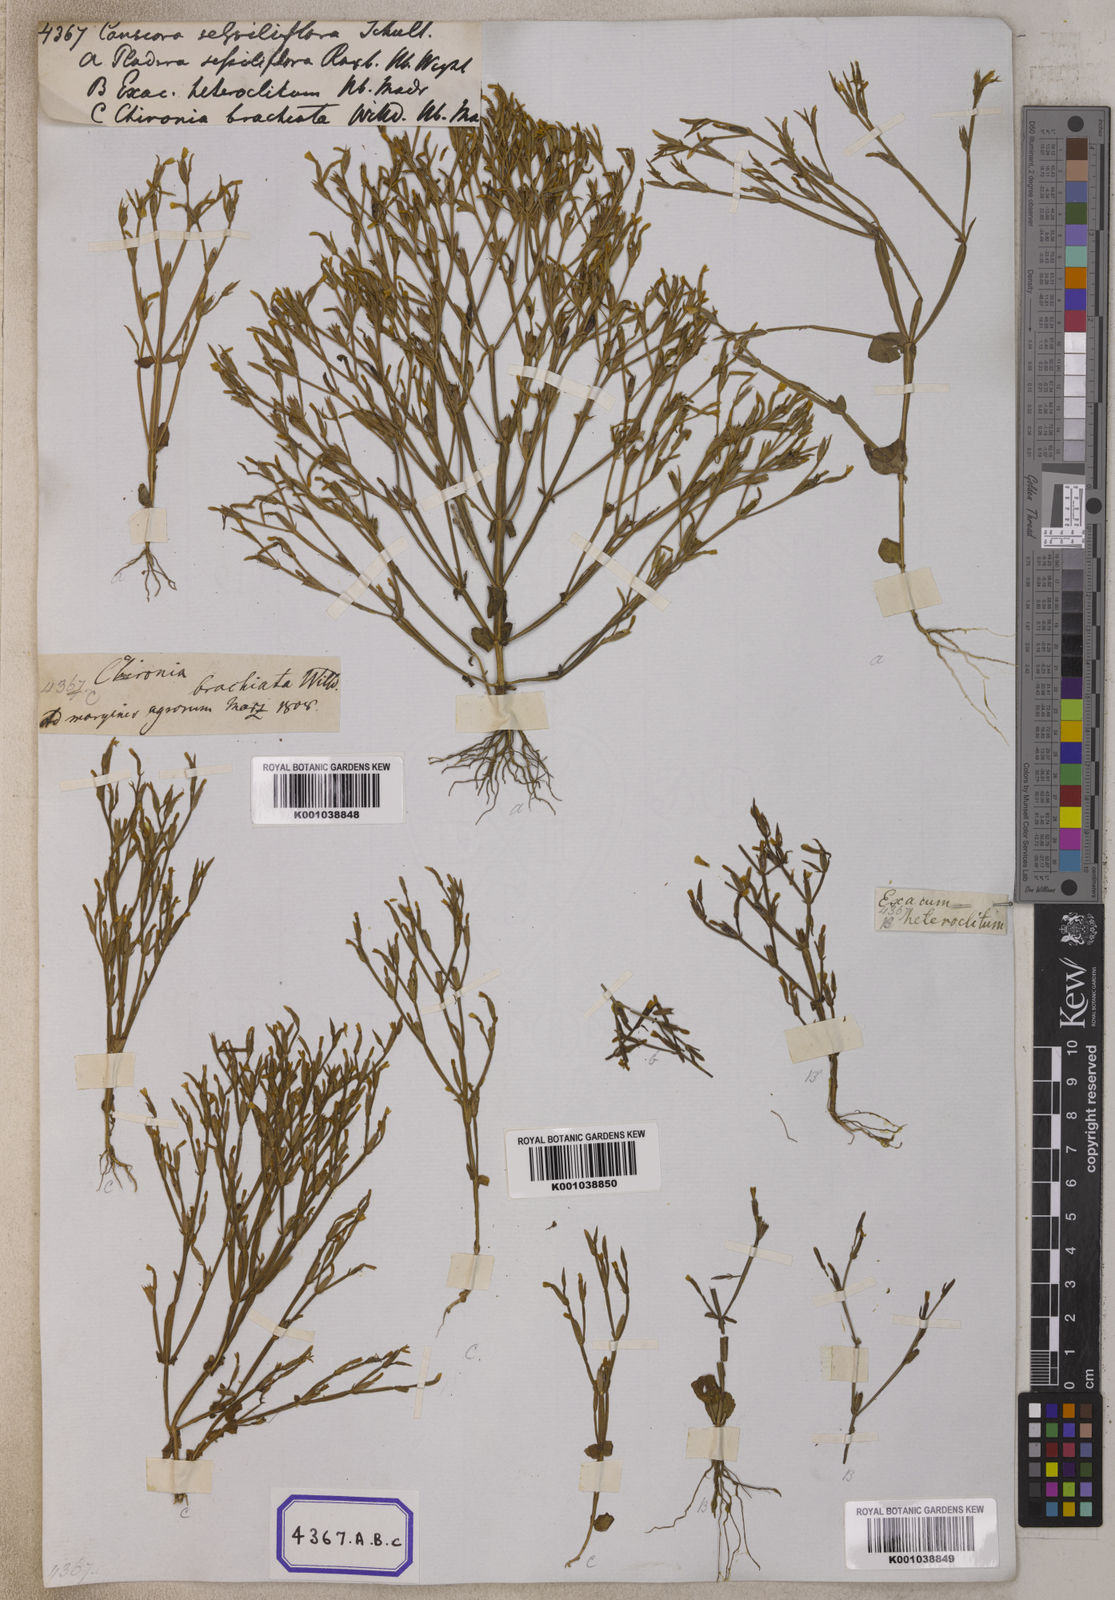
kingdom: Plantae
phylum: Tracheophyta
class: Magnoliopsida
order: Gentianales
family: Gentianaceae
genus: Canscora
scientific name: Canscora
